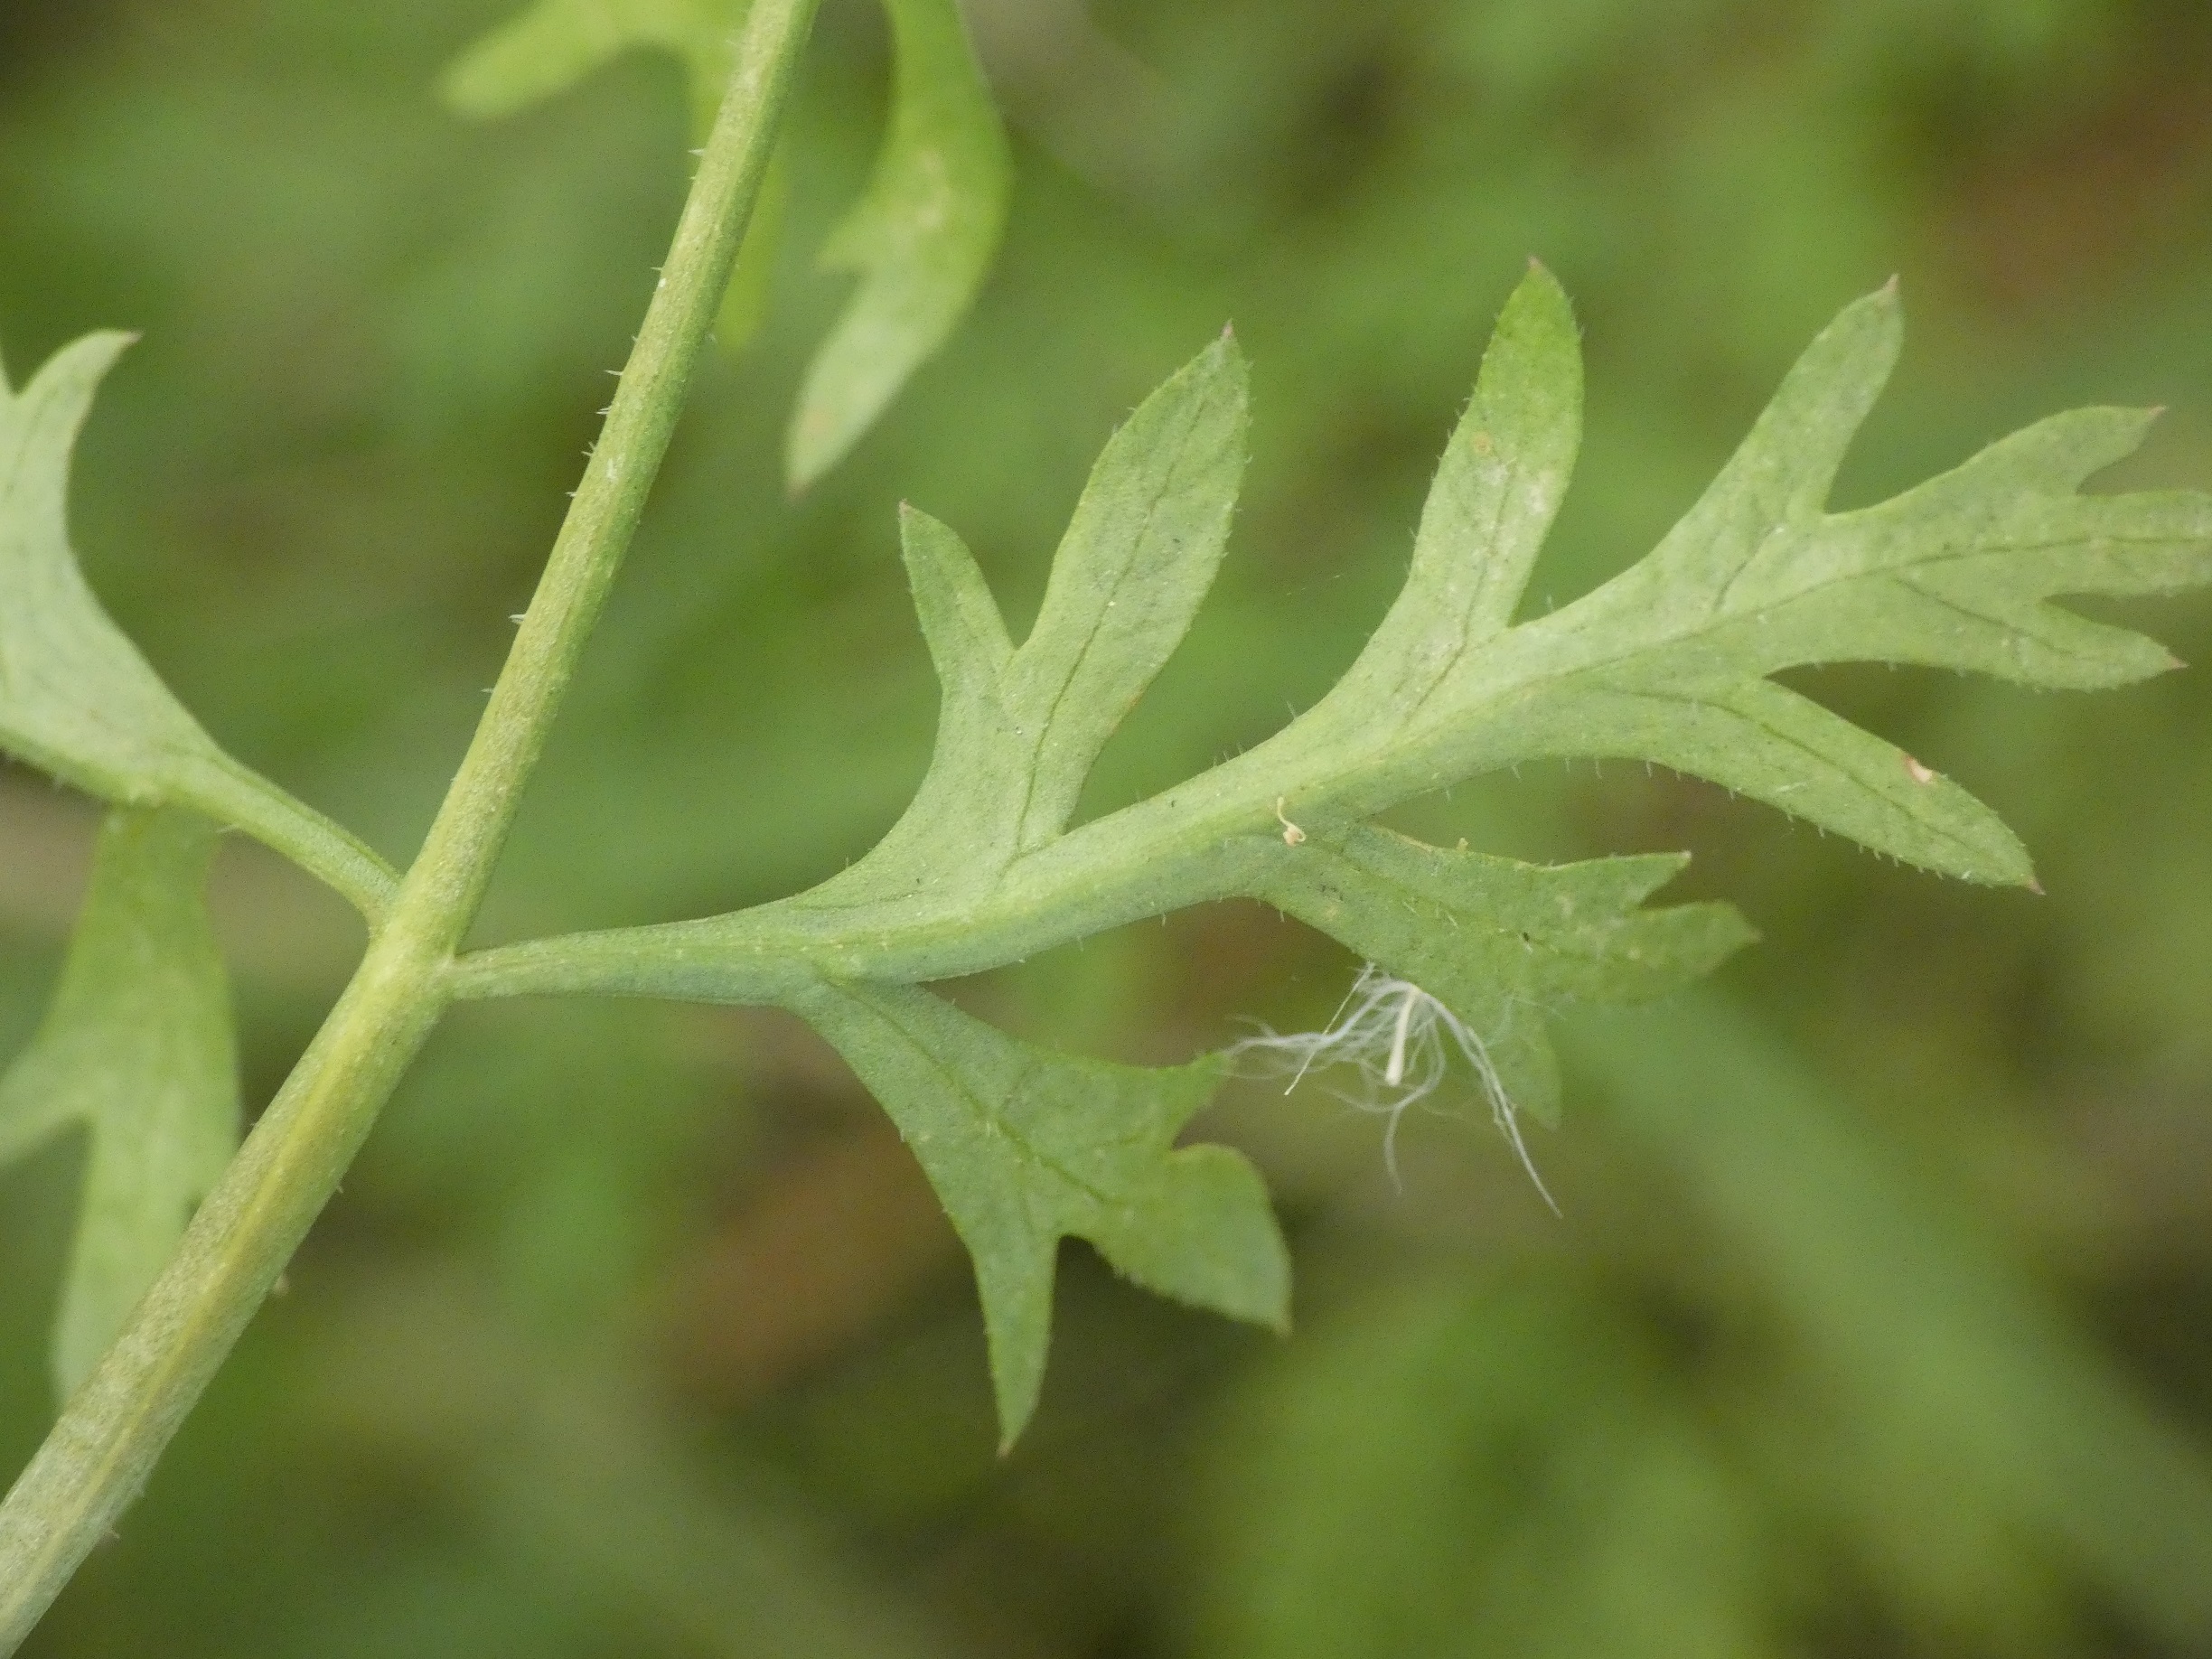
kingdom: Plantae
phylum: Tracheophyta
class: Magnoliopsida
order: Apiales
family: Apiaceae
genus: Daucus
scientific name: Daucus carota
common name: Vild gulerod
